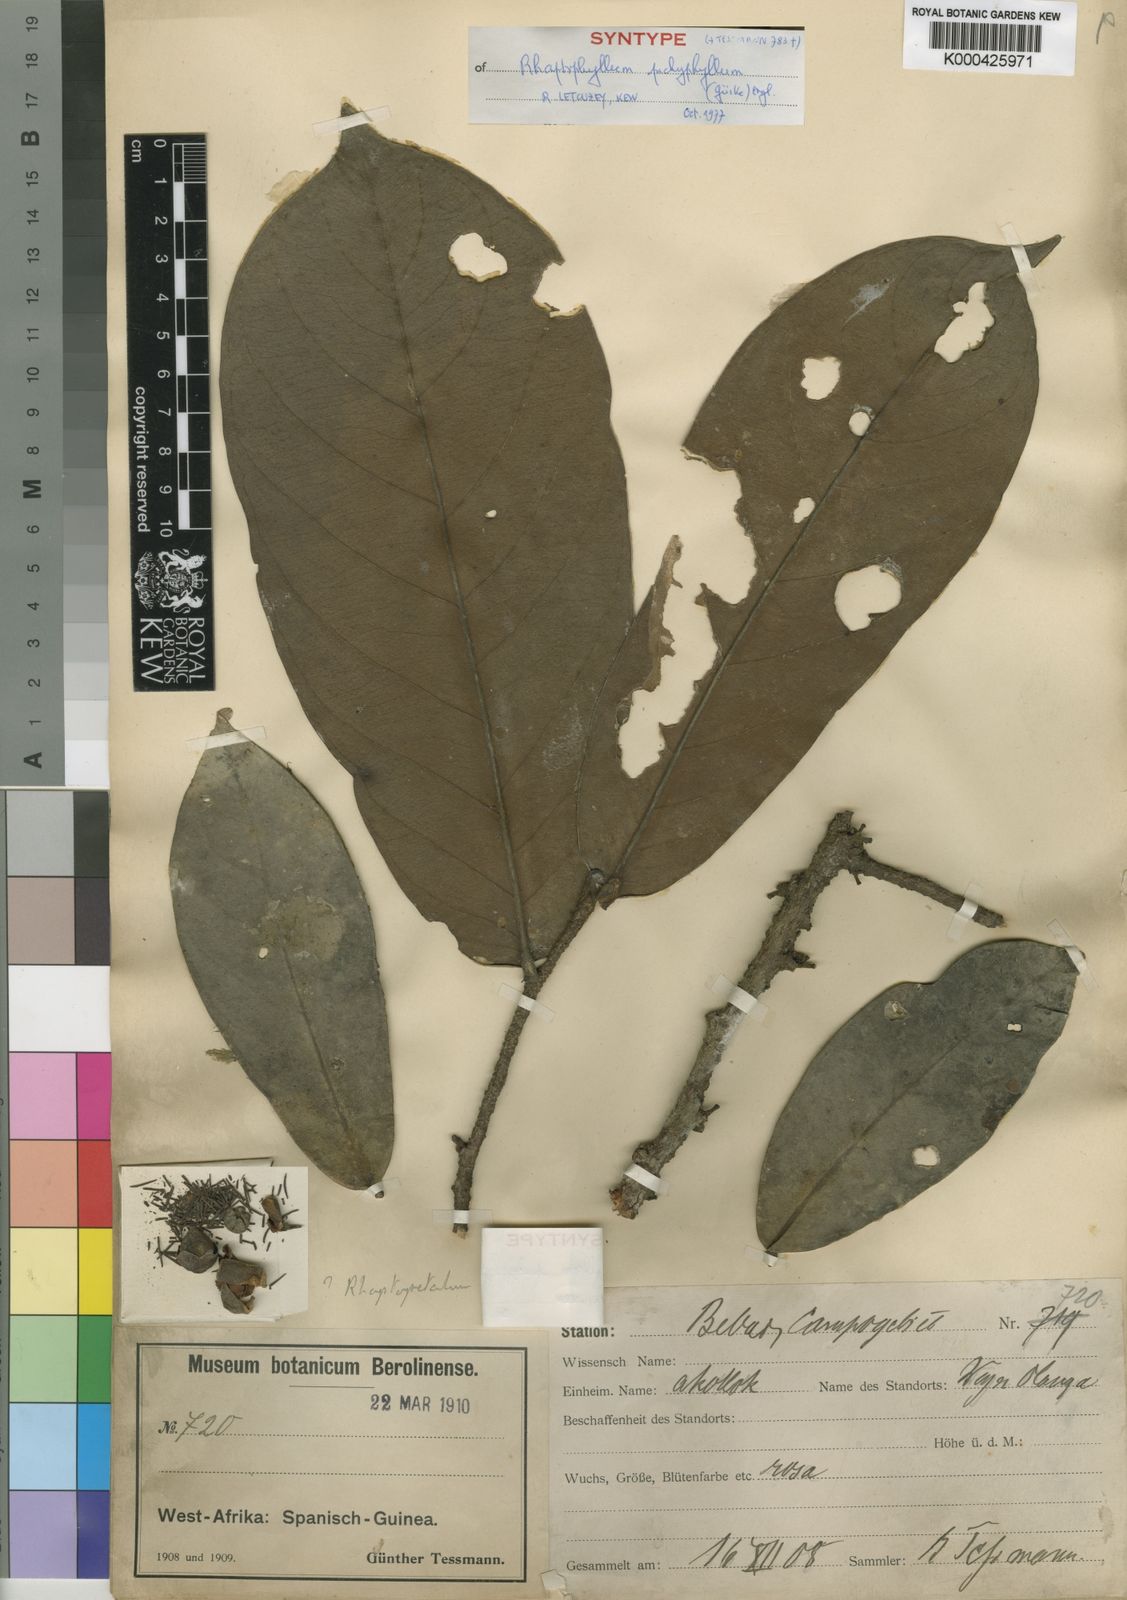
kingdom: Plantae
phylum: Tracheophyta
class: Magnoliopsida
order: Ericales
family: Lecythidaceae
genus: Rhaptopetalum
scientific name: Rhaptopetalum
